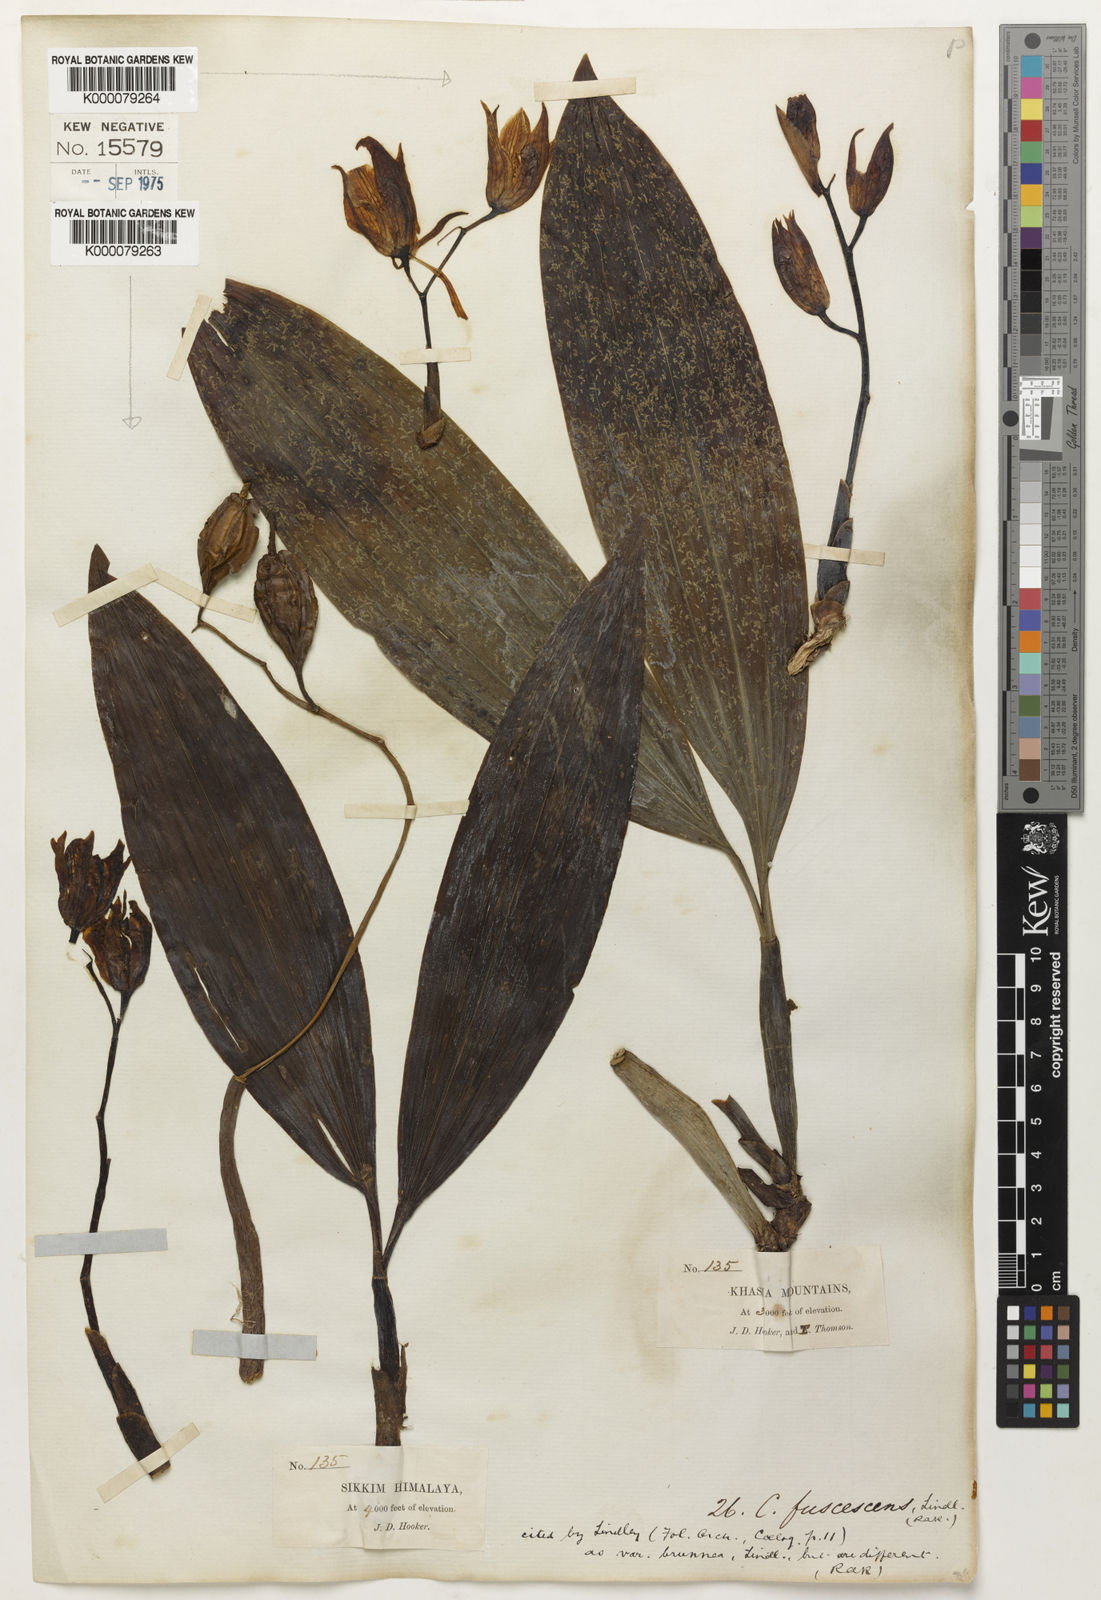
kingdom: Plantae
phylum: Tracheophyta
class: Liliopsida
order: Asparagales
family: Orchidaceae
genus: Coelogyne
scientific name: Coelogyne fuscescens
